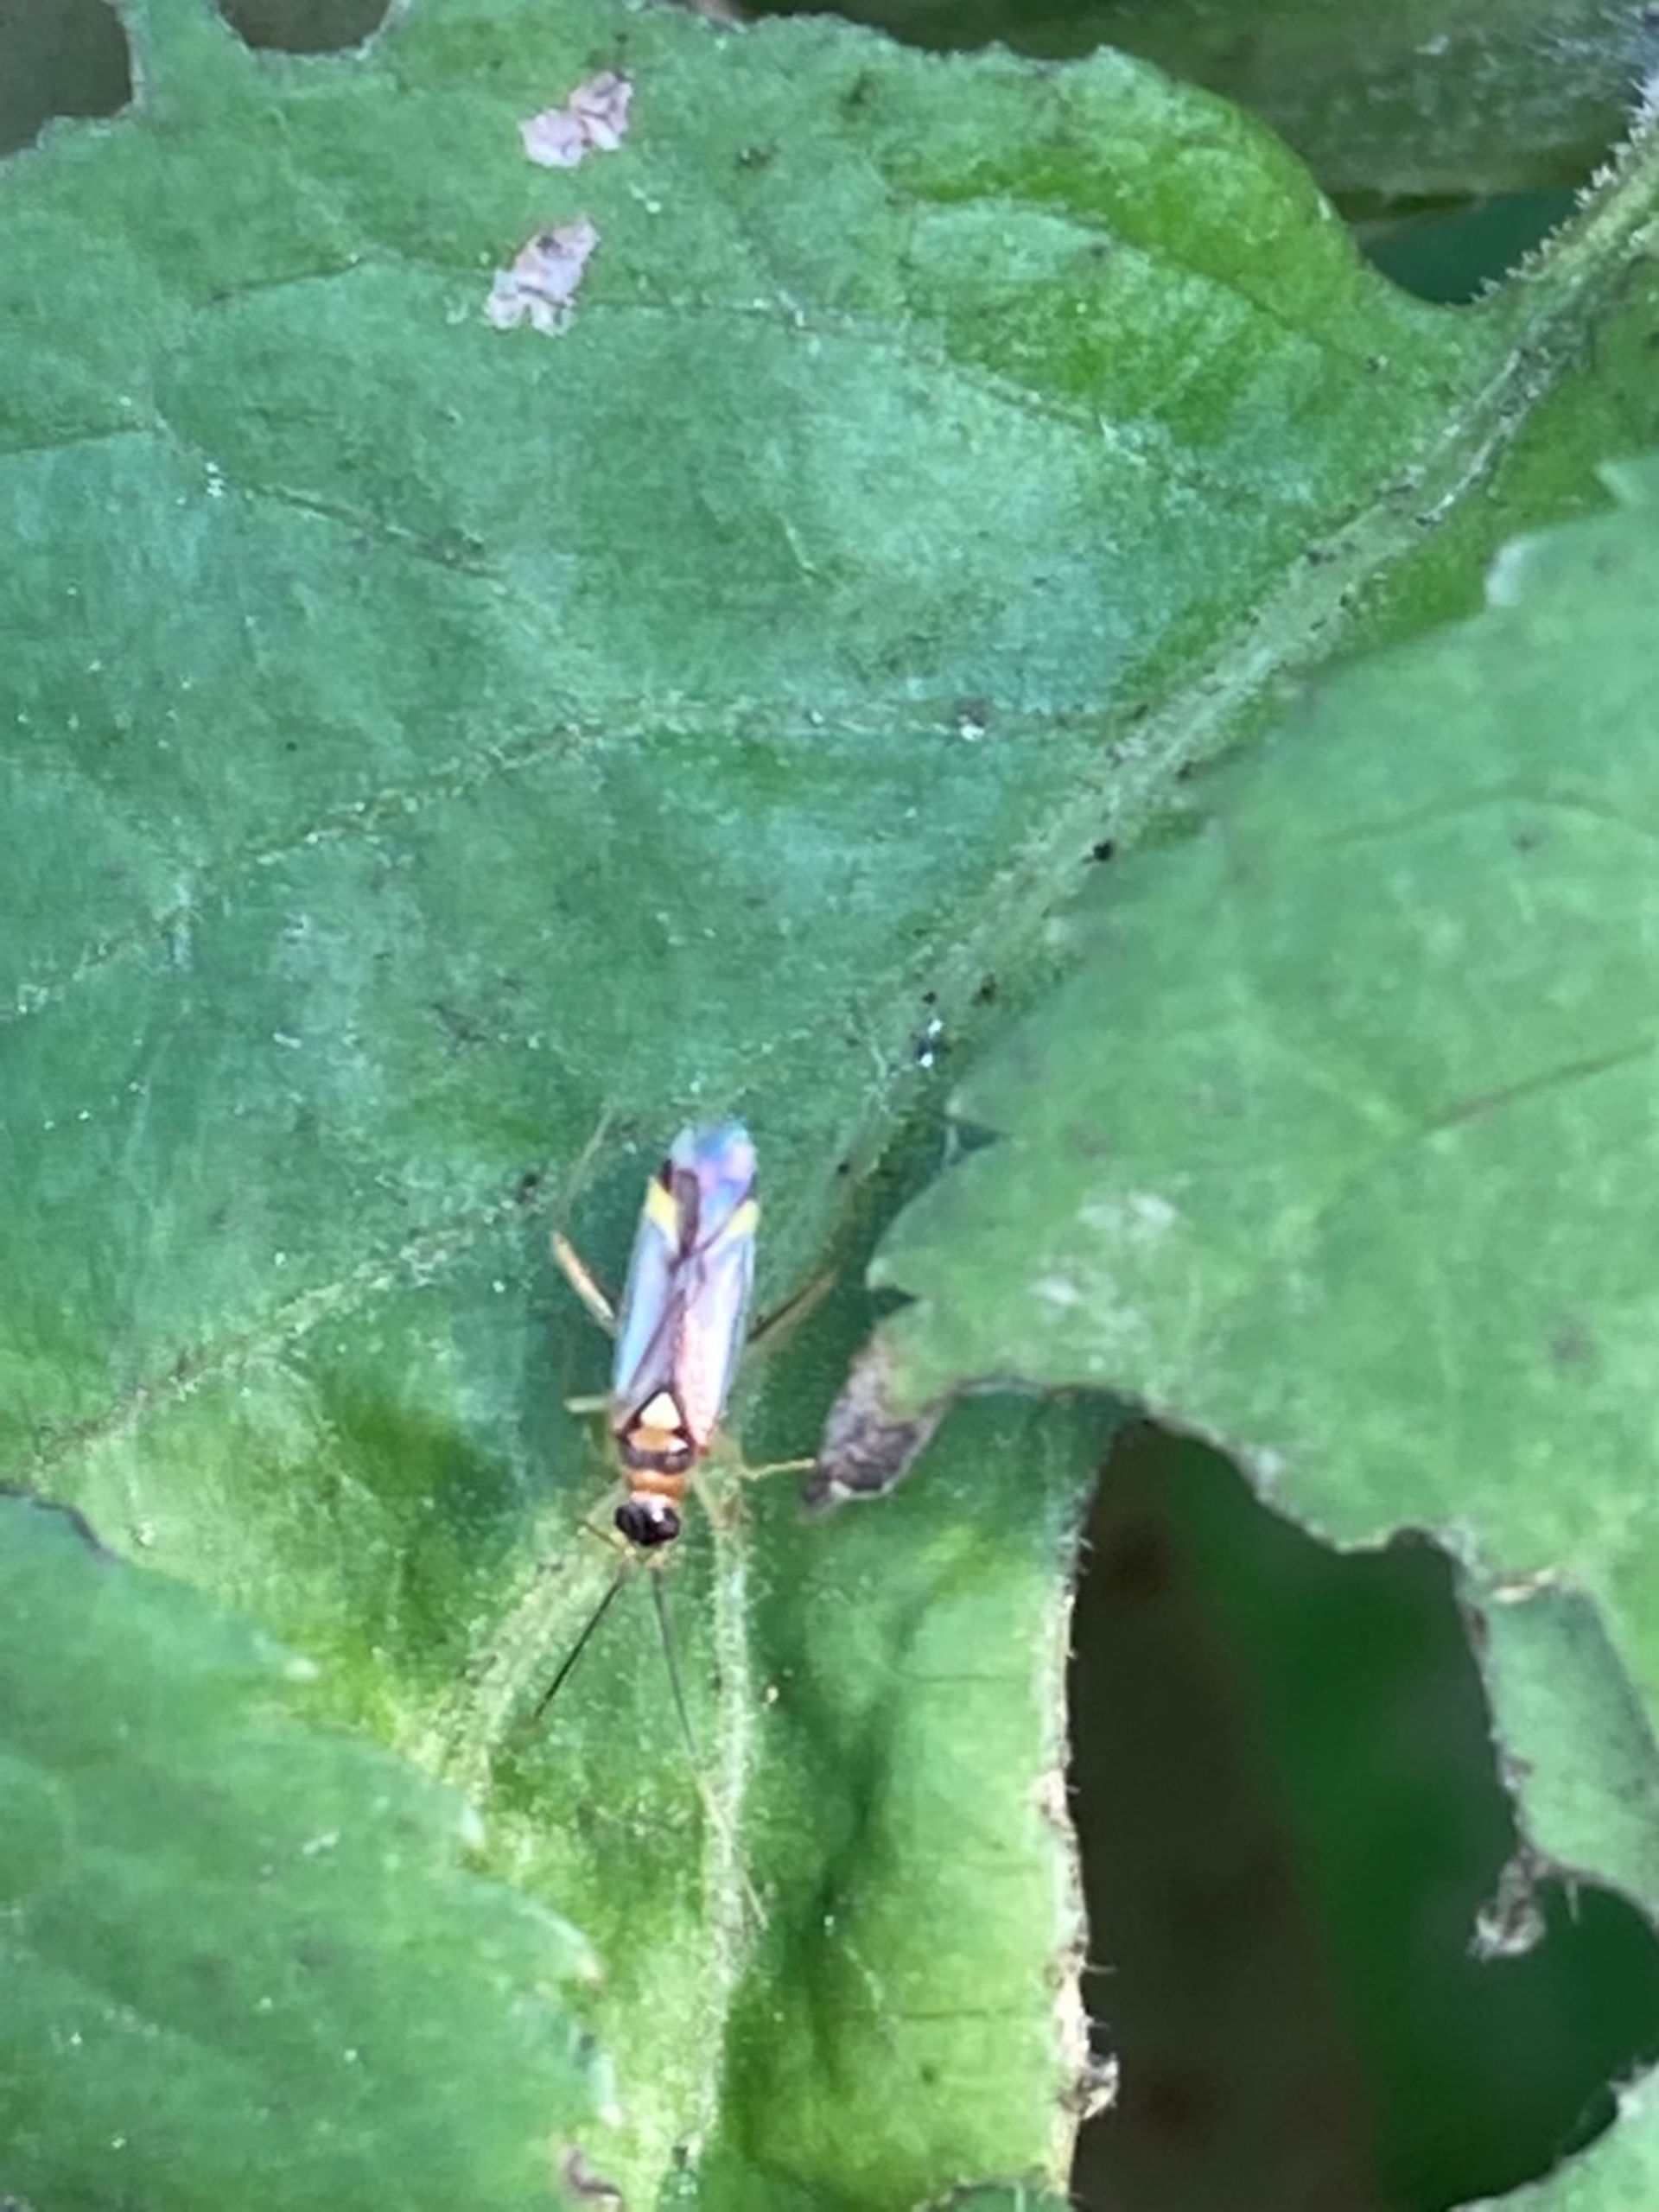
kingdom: Animalia
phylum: Arthropoda
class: Insecta
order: Hemiptera
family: Miridae
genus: Campyloneura
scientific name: Campyloneura virgula
